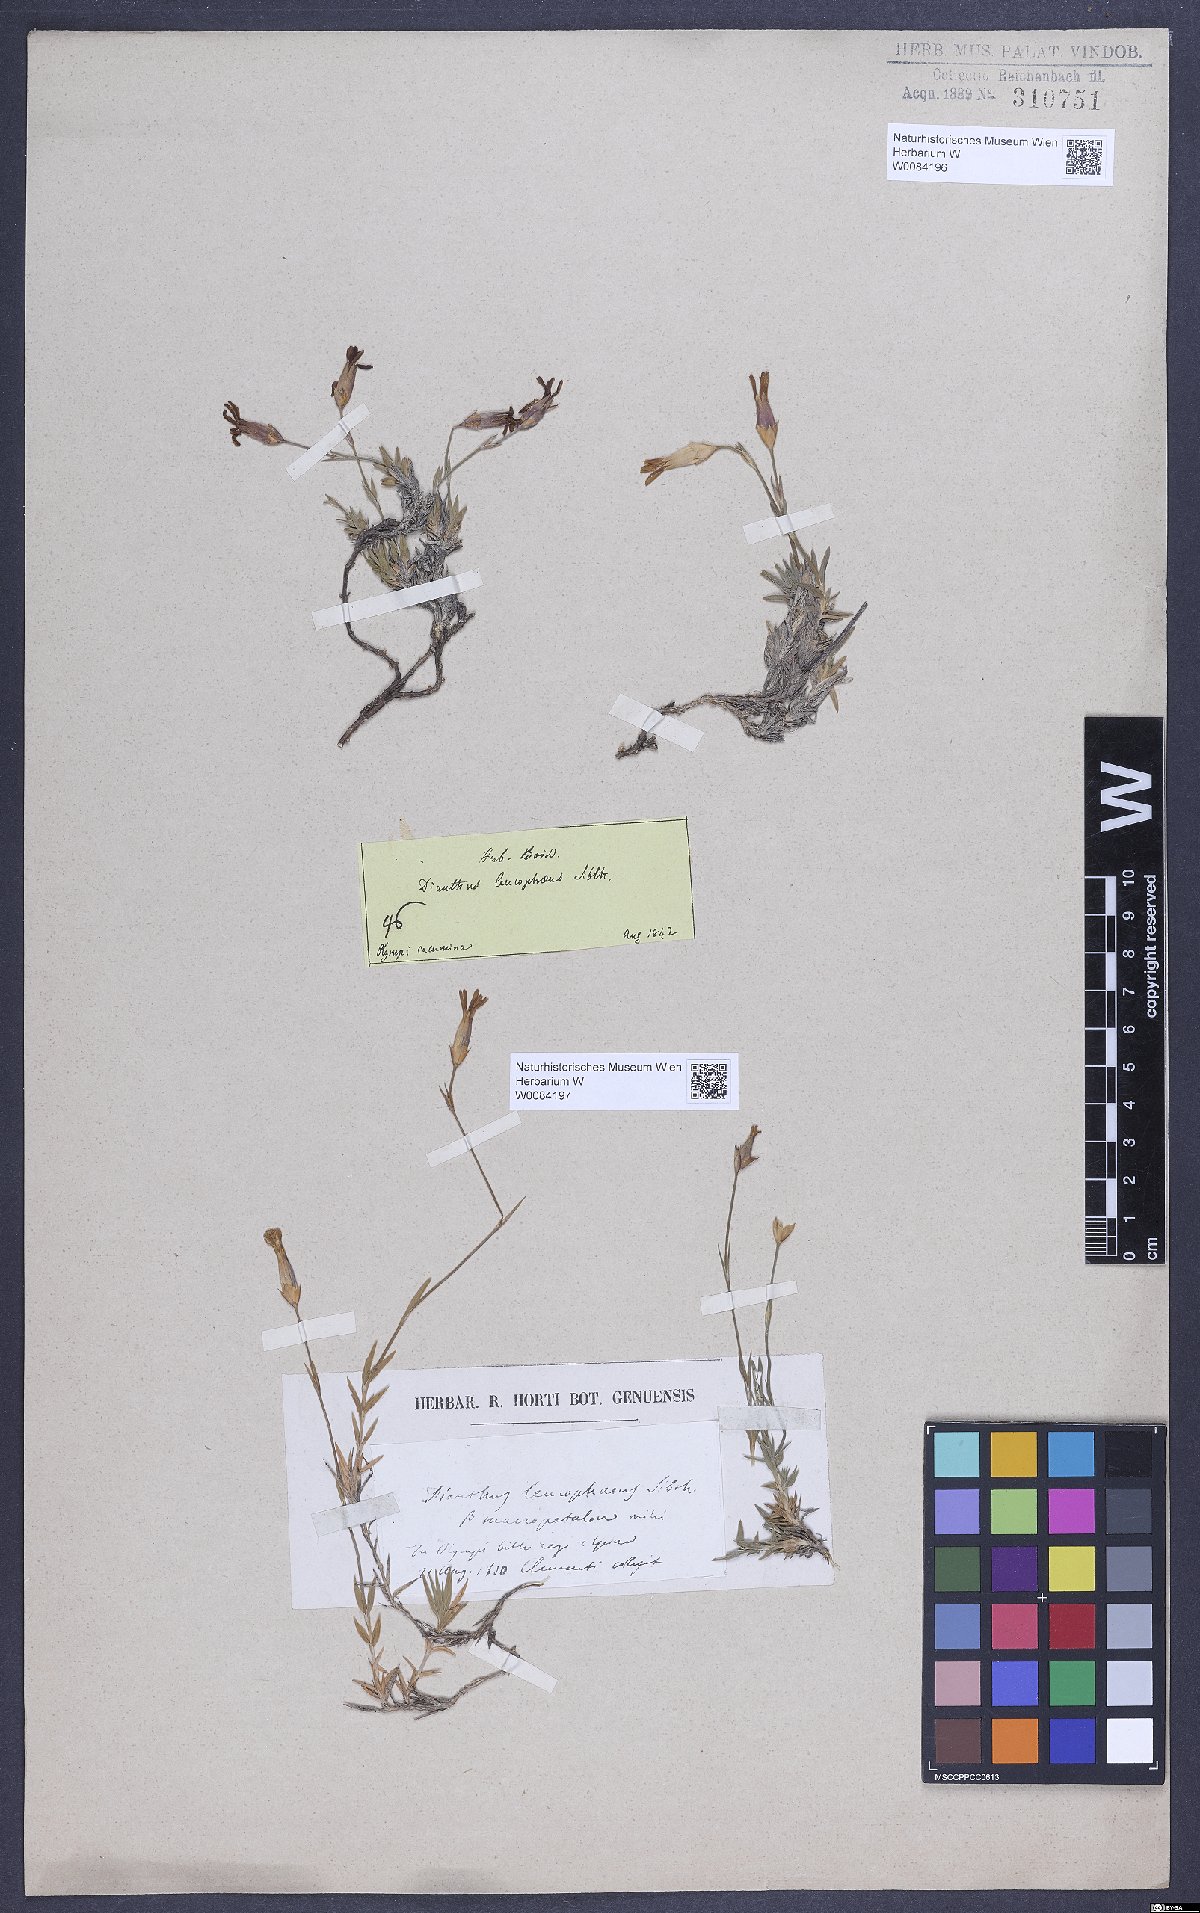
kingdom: Plantae
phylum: Tracheophyta
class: Magnoliopsida
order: Caryophyllales
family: Caryophyllaceae
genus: Dianthus
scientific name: Dianthus leucophaeus
